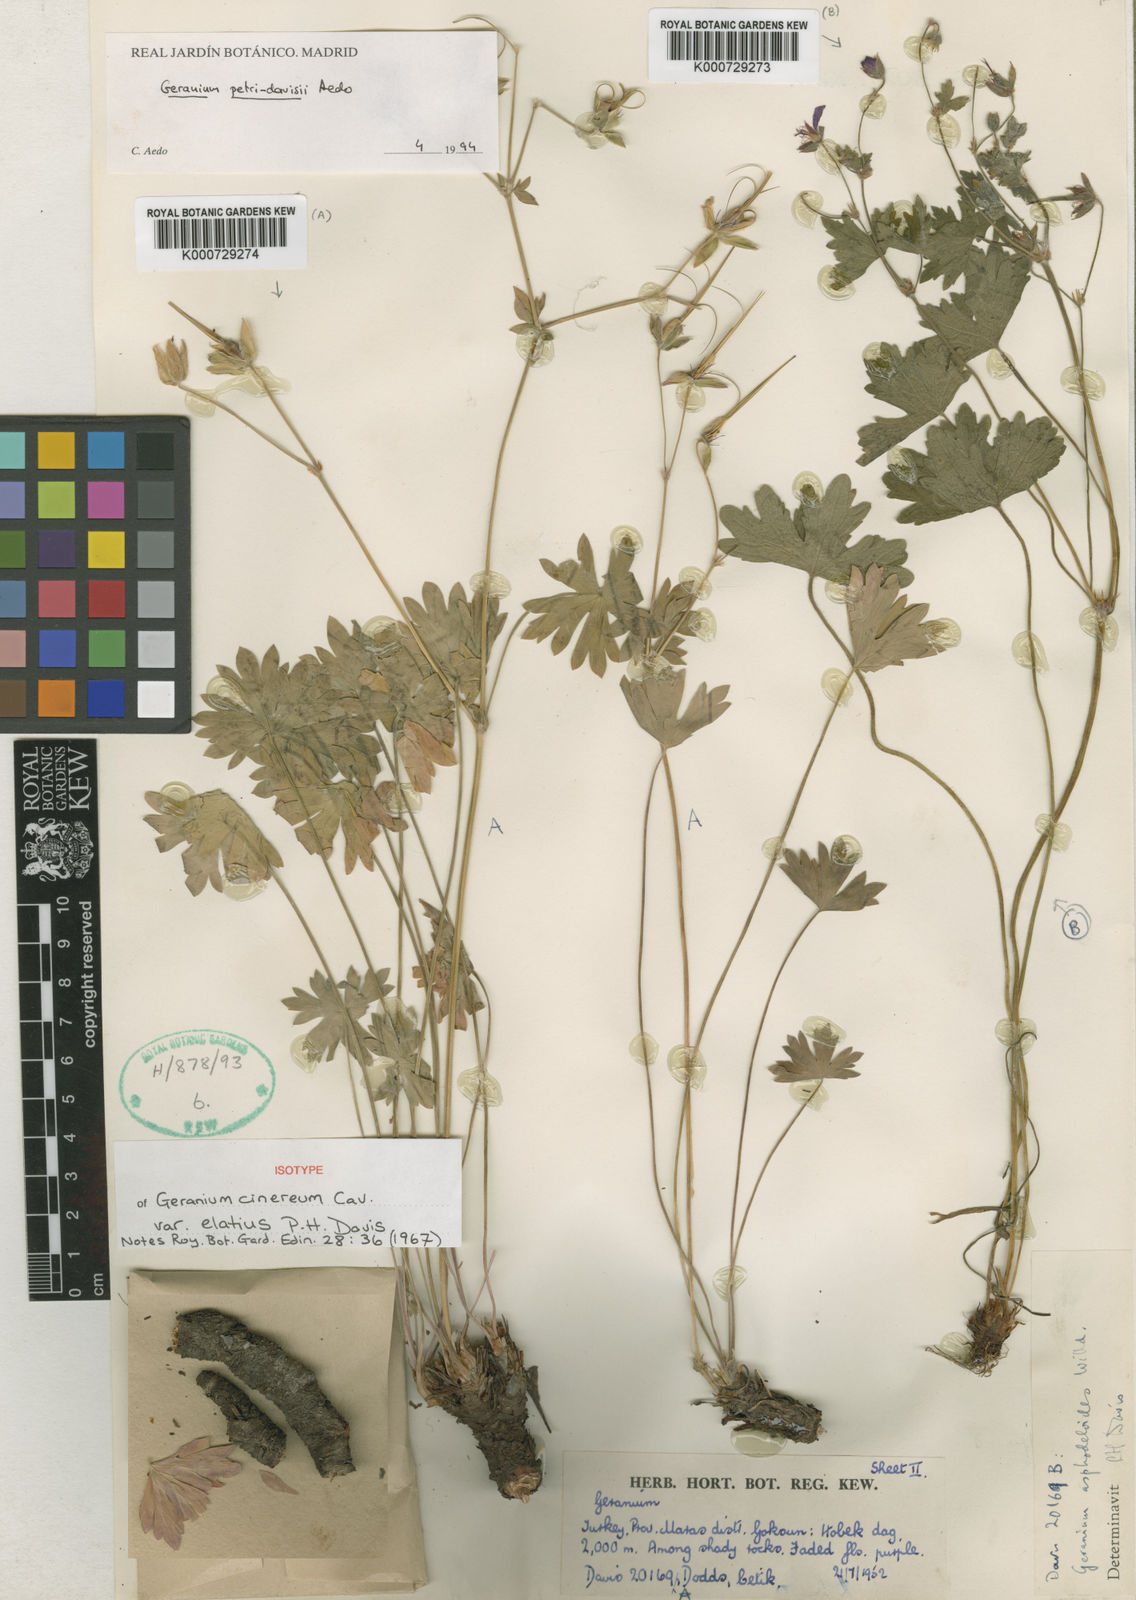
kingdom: Plantae
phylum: Tracheophyta
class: Magnoliopsida
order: Geraniales
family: Geraniaceae
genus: Geranium
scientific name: Geranium petri-davisii
